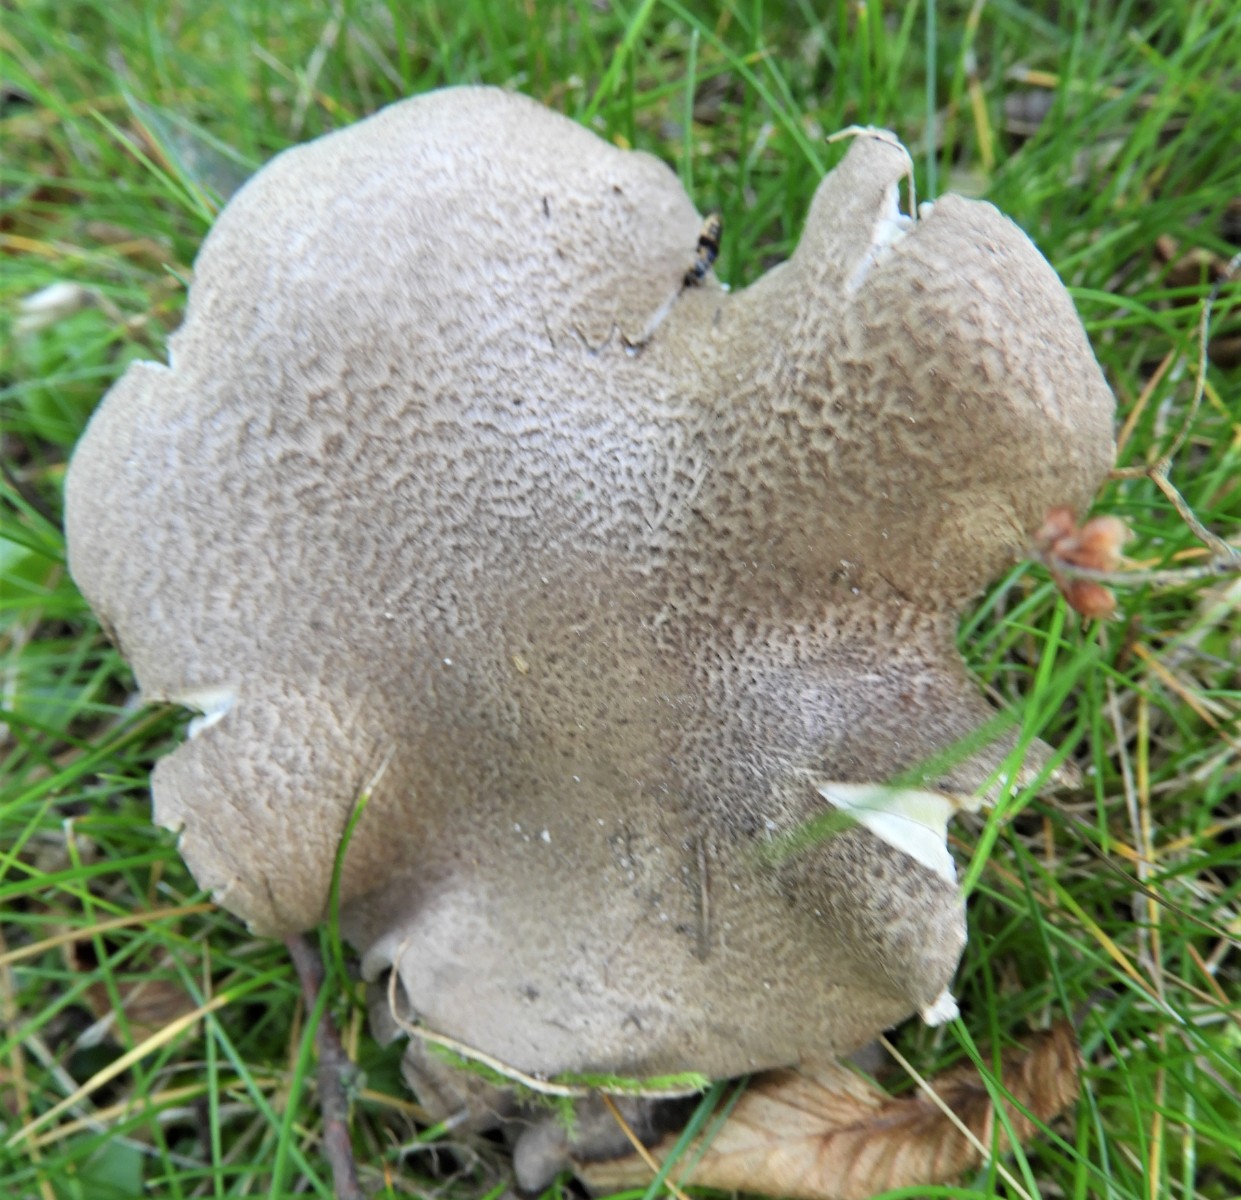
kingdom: Fungi
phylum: Basidiomycota
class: Agaricomycetes
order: Agaricales
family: Tricholomataceae
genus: Tricholoma
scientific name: Tricholoma
